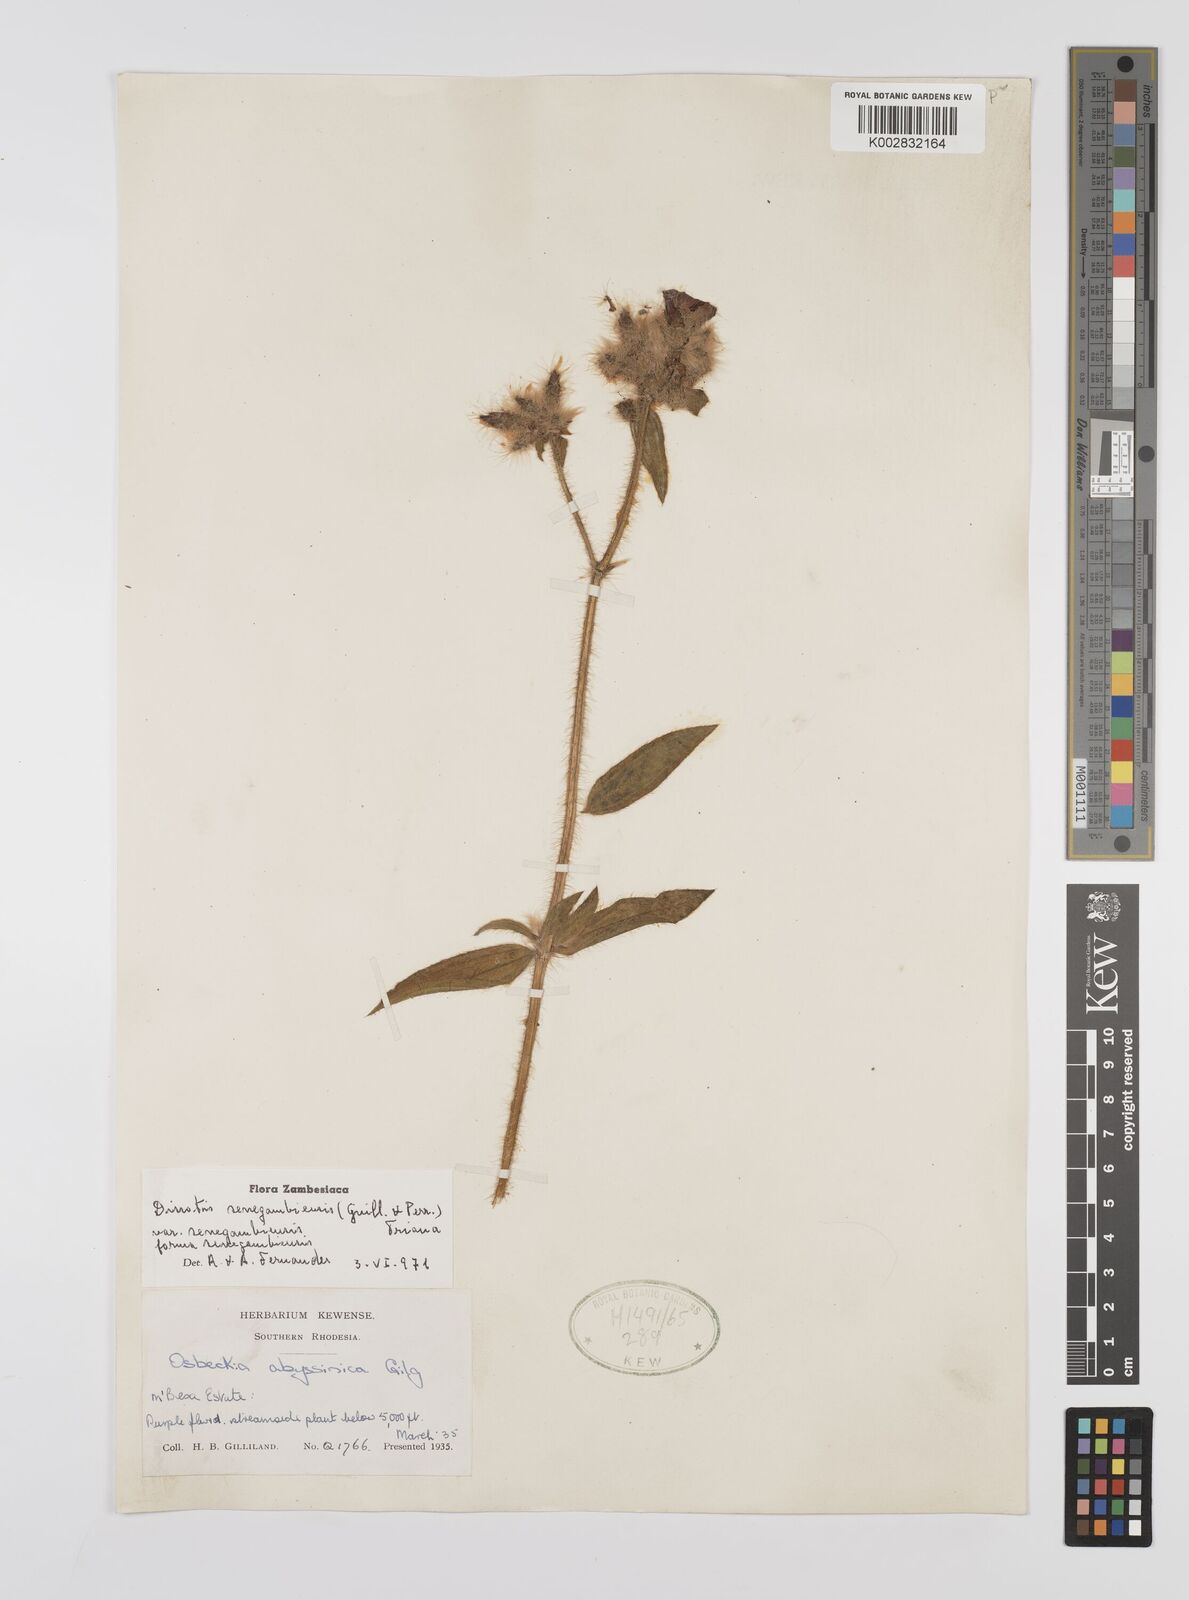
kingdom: Plantae
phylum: Tracheophyta
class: Magnoliopsida
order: Myrtales
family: Melastomataceae
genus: Nerophila
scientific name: Nerophila senegambiensis
